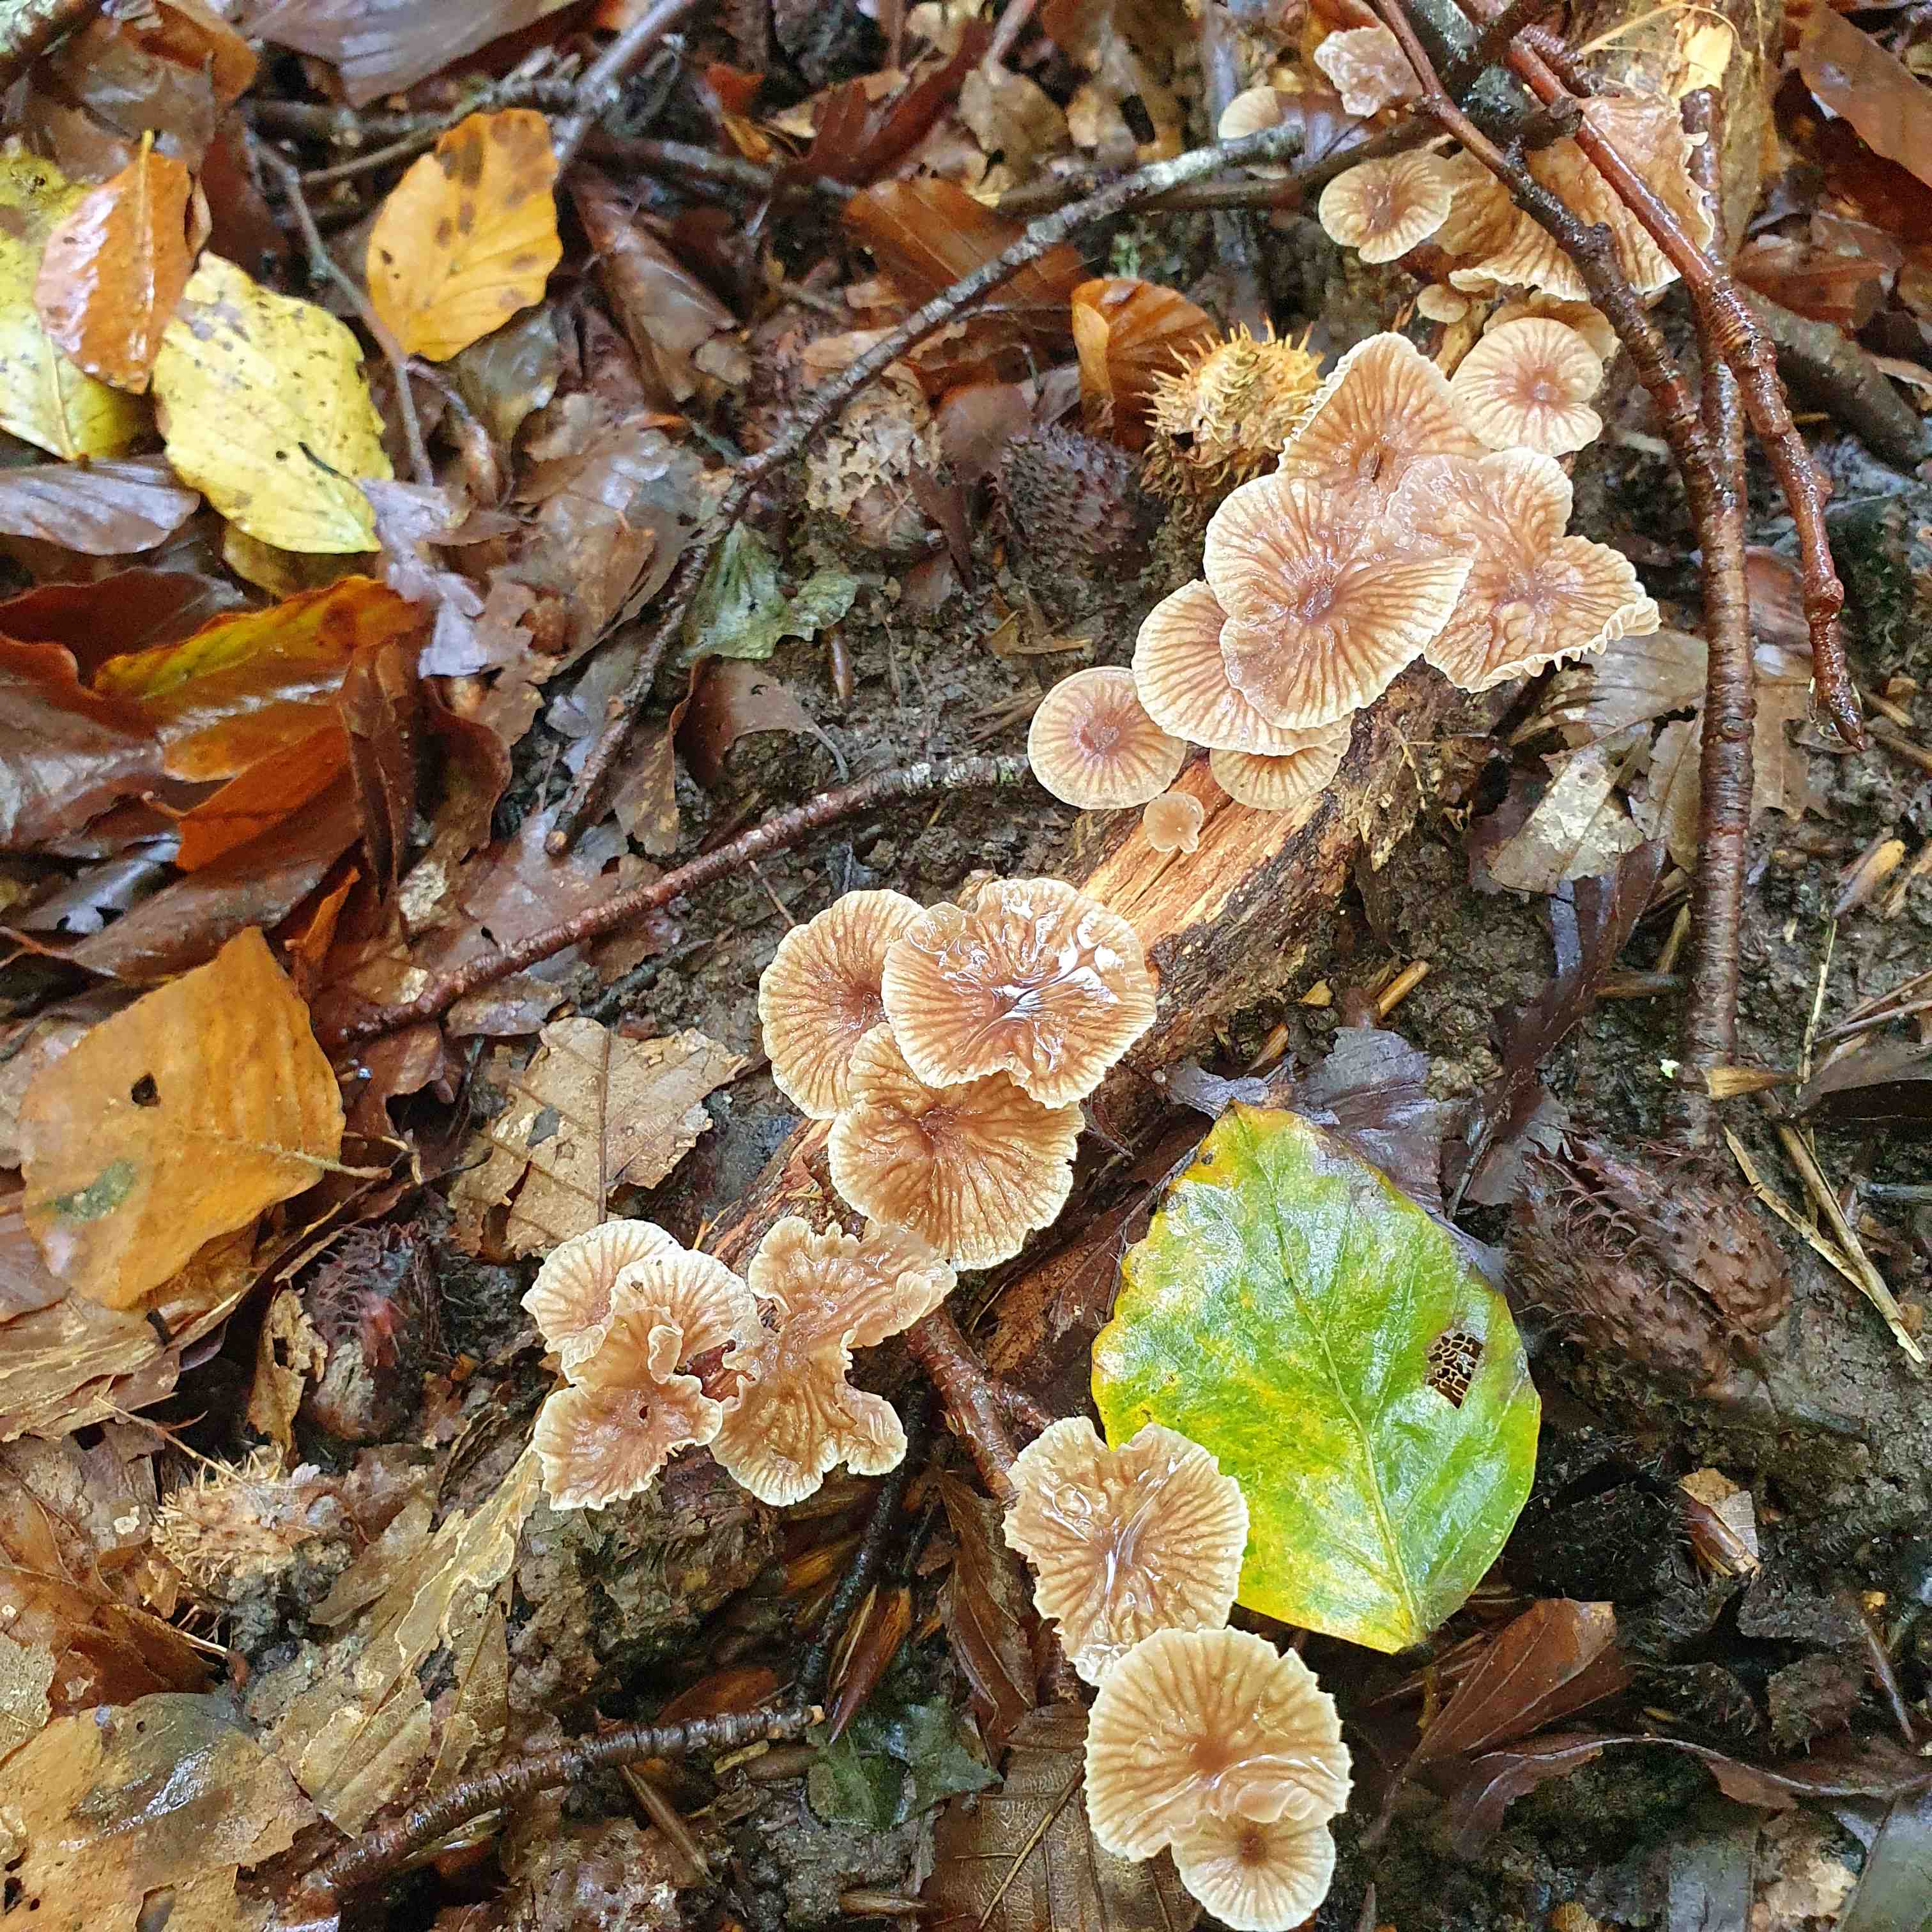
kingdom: Fungi
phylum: Basidiomycota
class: Agaricomycetes
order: Agaricales
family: Omphalotaceae
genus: Gymnopus
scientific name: Gymnopus foetidus
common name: stinkende fladhat
